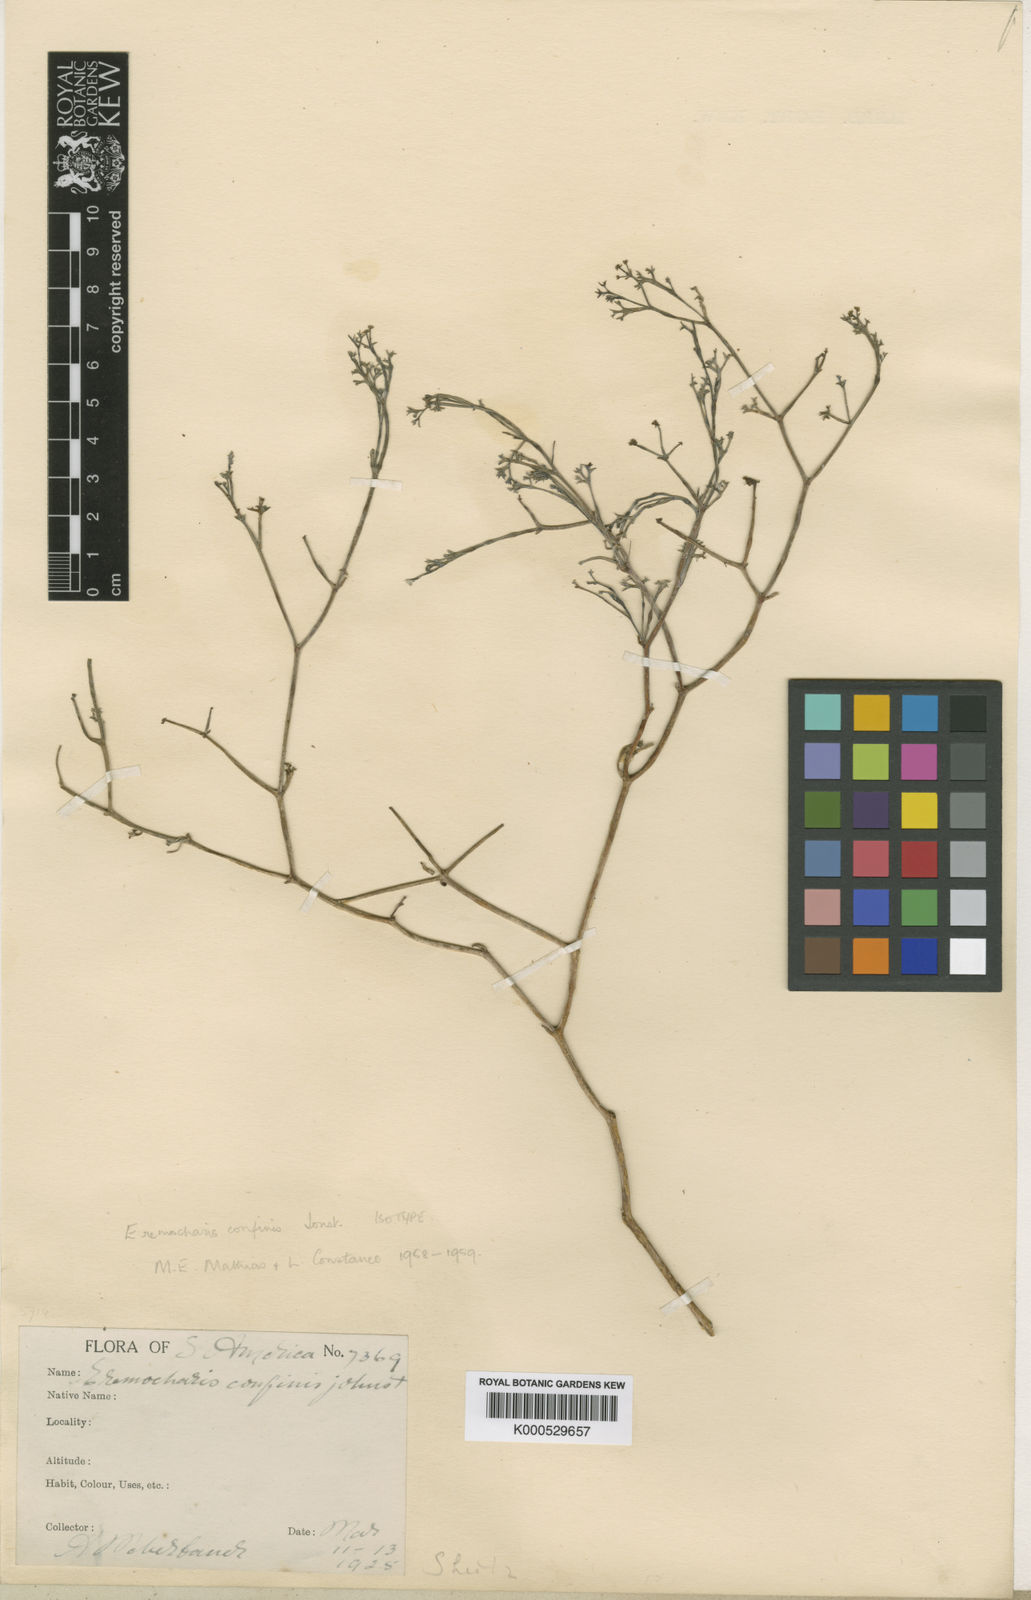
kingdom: Plantae
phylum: Tracheophyta
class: Magnoliopsida
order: Apiales
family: Apiaceae
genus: Eremocharis
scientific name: Eremocharis confinis
